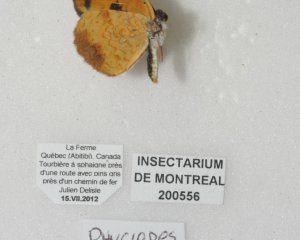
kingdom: Animalia
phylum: Arthropoda
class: Insecta
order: Lepidoptera
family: Nymphalidae
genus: Phyciodes
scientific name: Phyciodes tharos
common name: Northern Crescent
